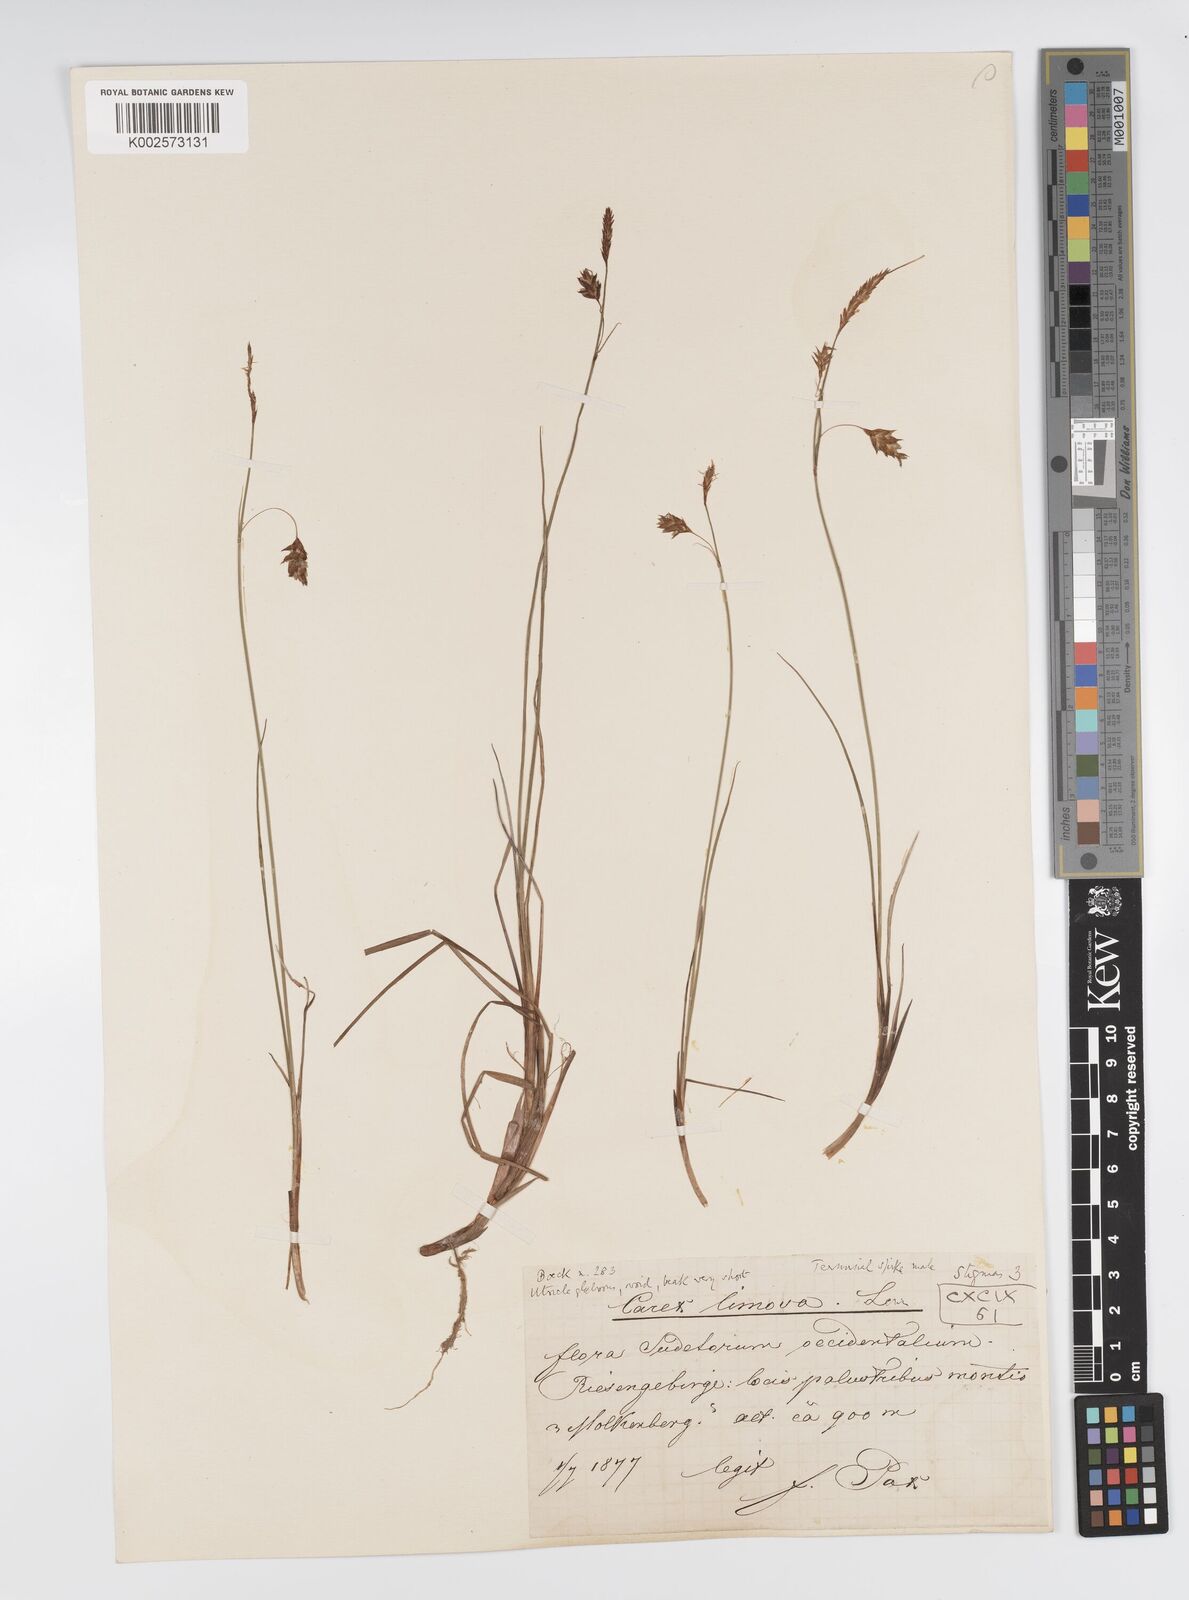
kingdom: Plantae
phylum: Tracheophyta
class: Liliopsida
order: Poales
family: Cyperaceae
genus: Carex
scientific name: Carex limosa
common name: Bog sedge
